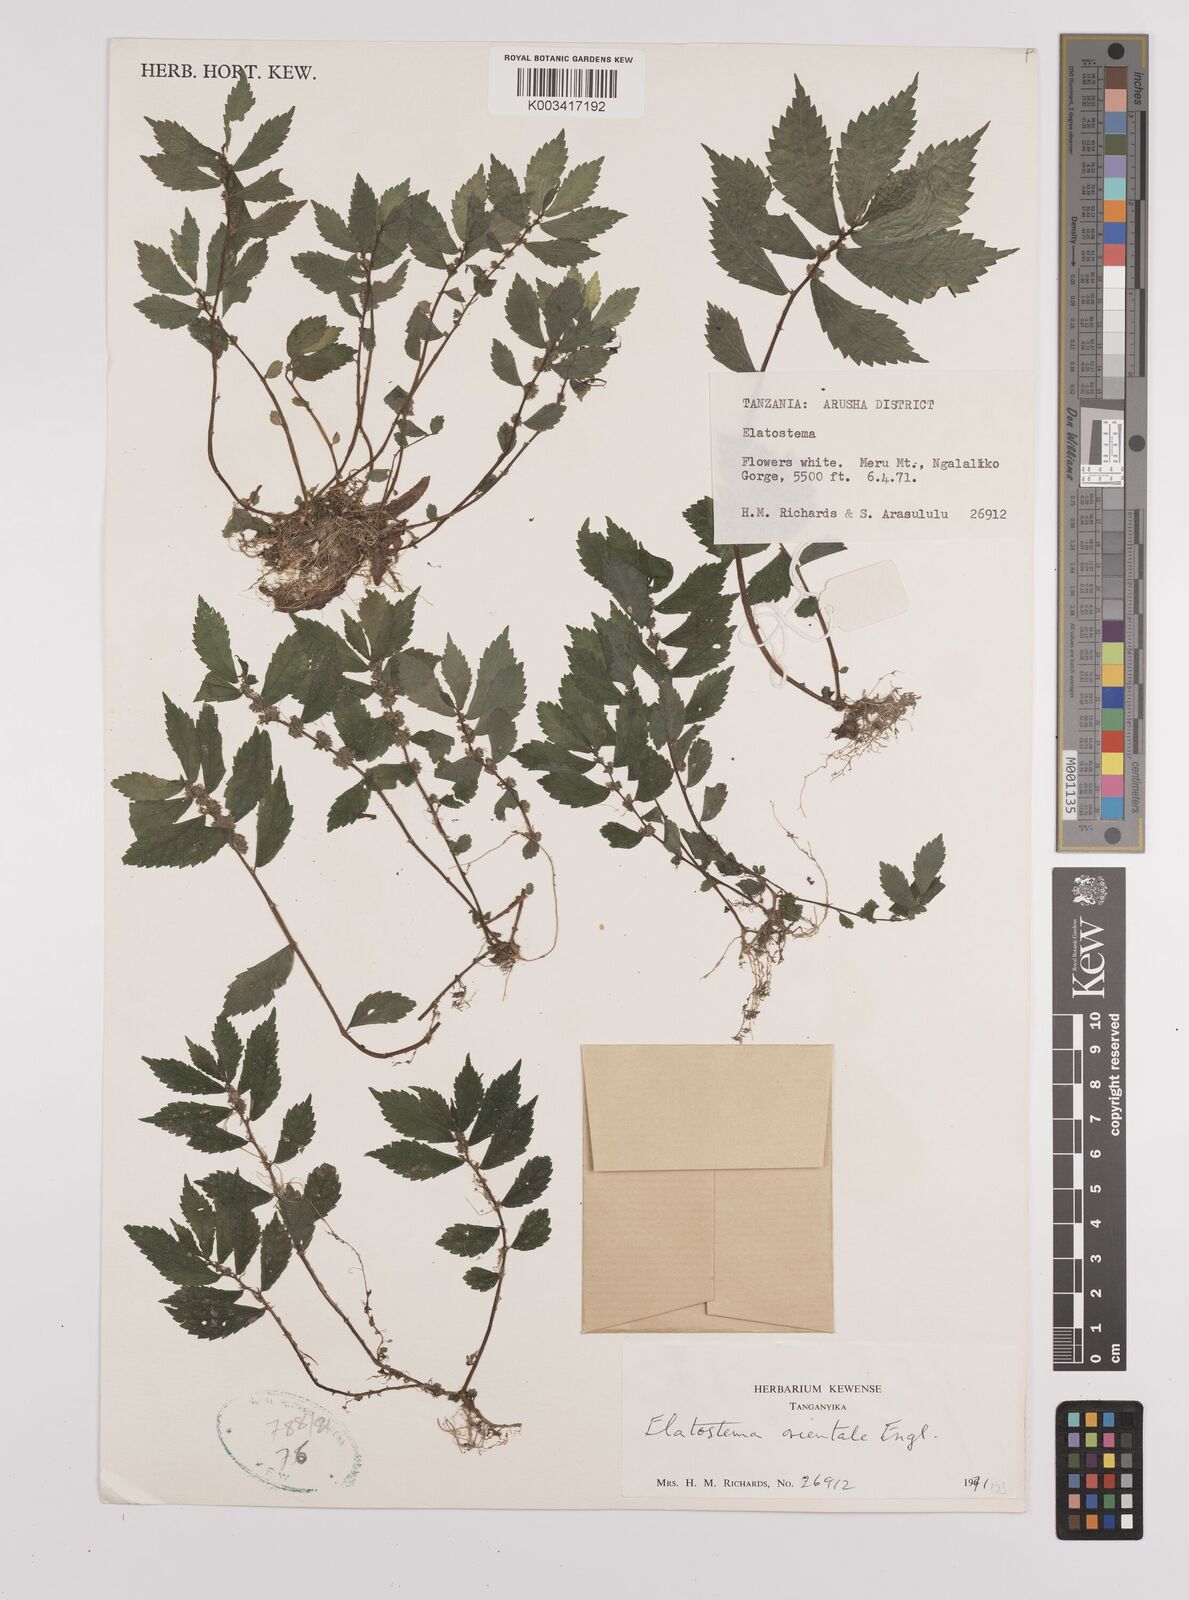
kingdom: Plantae
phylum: Tracheophyta
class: Magnoliopsida
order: Rosales
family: Urticaceae
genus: Elatostema
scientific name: Elatostema monticola
